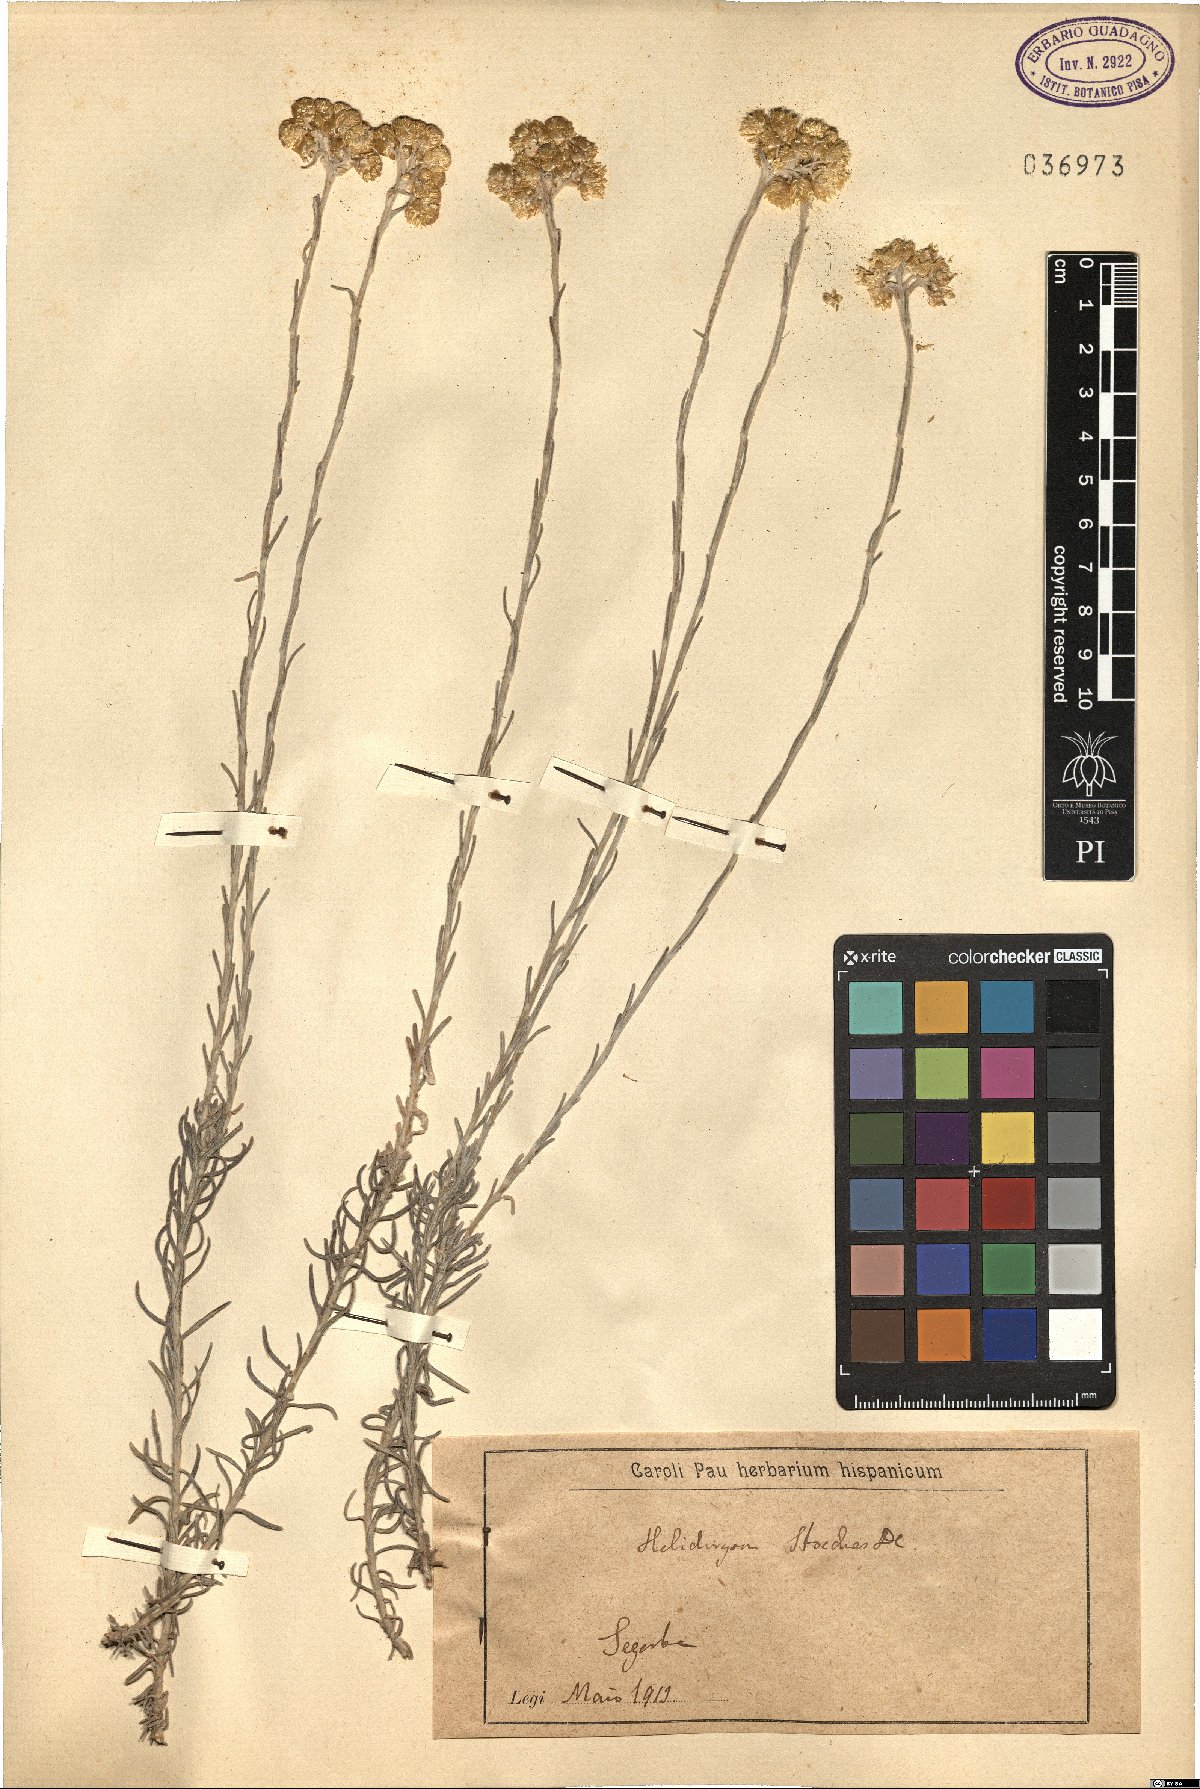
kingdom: Plantae
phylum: Tracheophyta
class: Magnoliopsida
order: Asterales
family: Asteraceae
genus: Helichrysum
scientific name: Helichrysum stoechas
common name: Goldilocks
